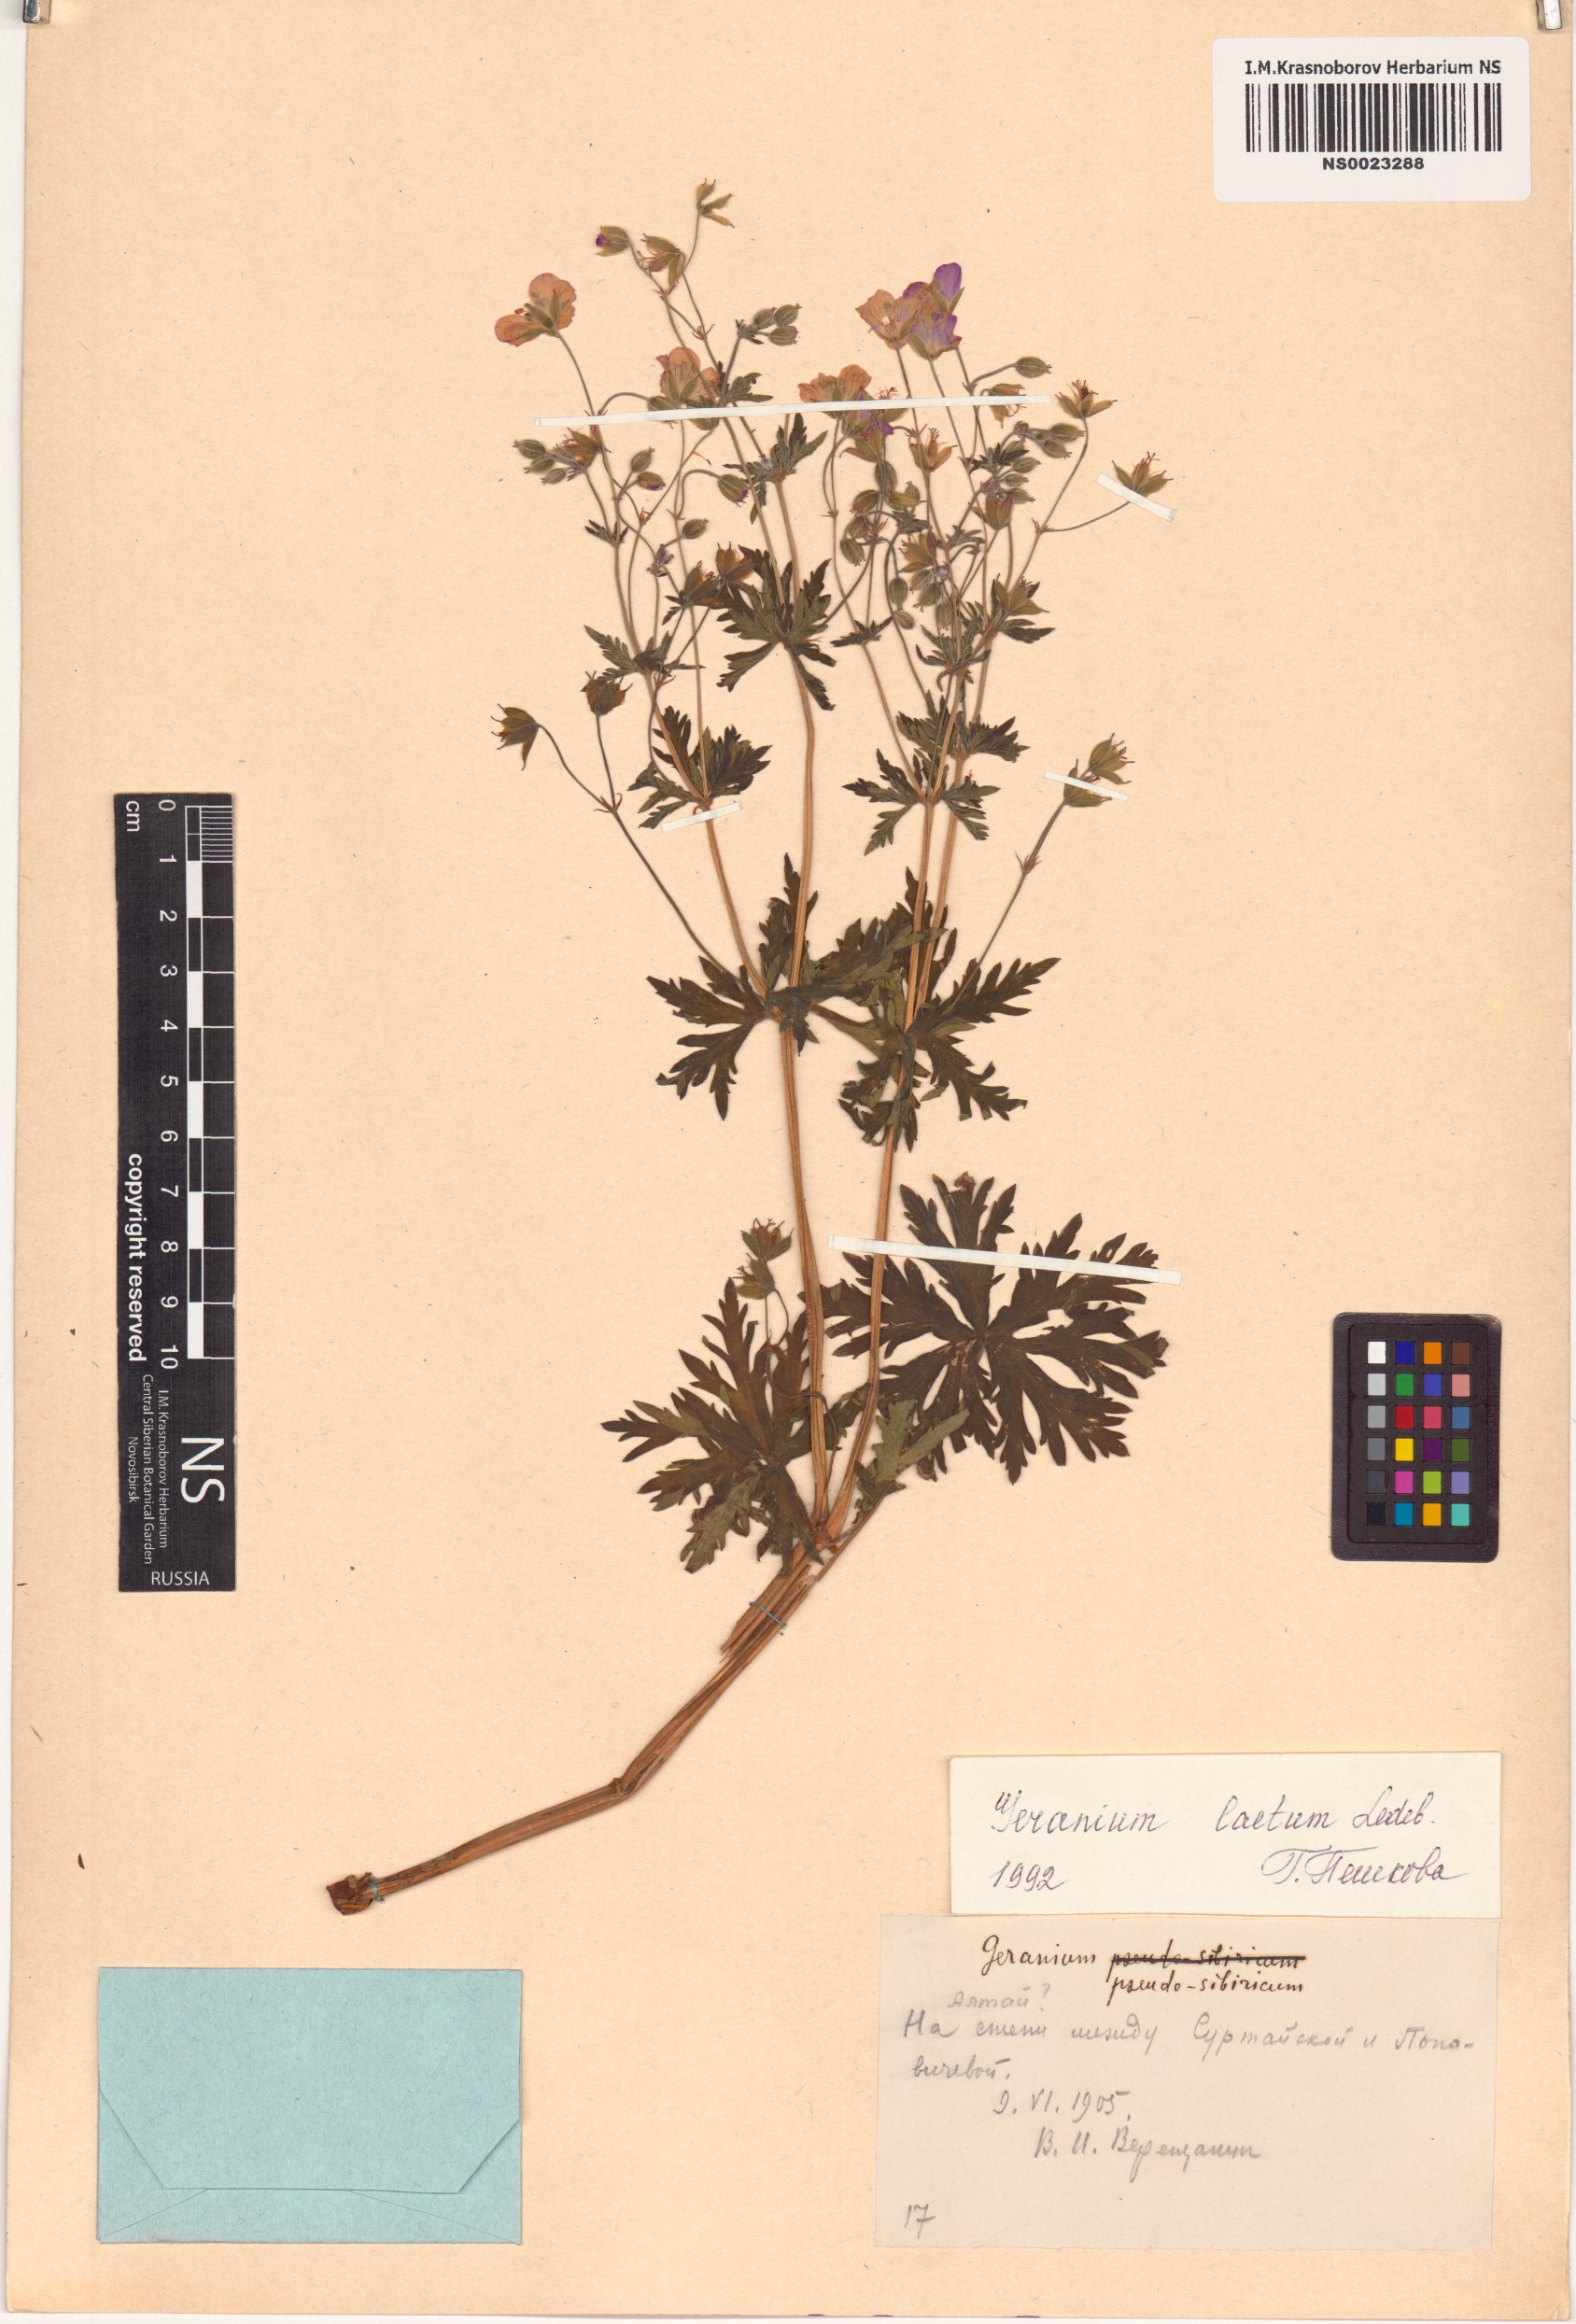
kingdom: Plantae
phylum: Tracheophyta
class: Magnoliopsida
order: Geraniales
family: Geraniaceae
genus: Geranium
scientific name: Geranium pseudosibiricum
